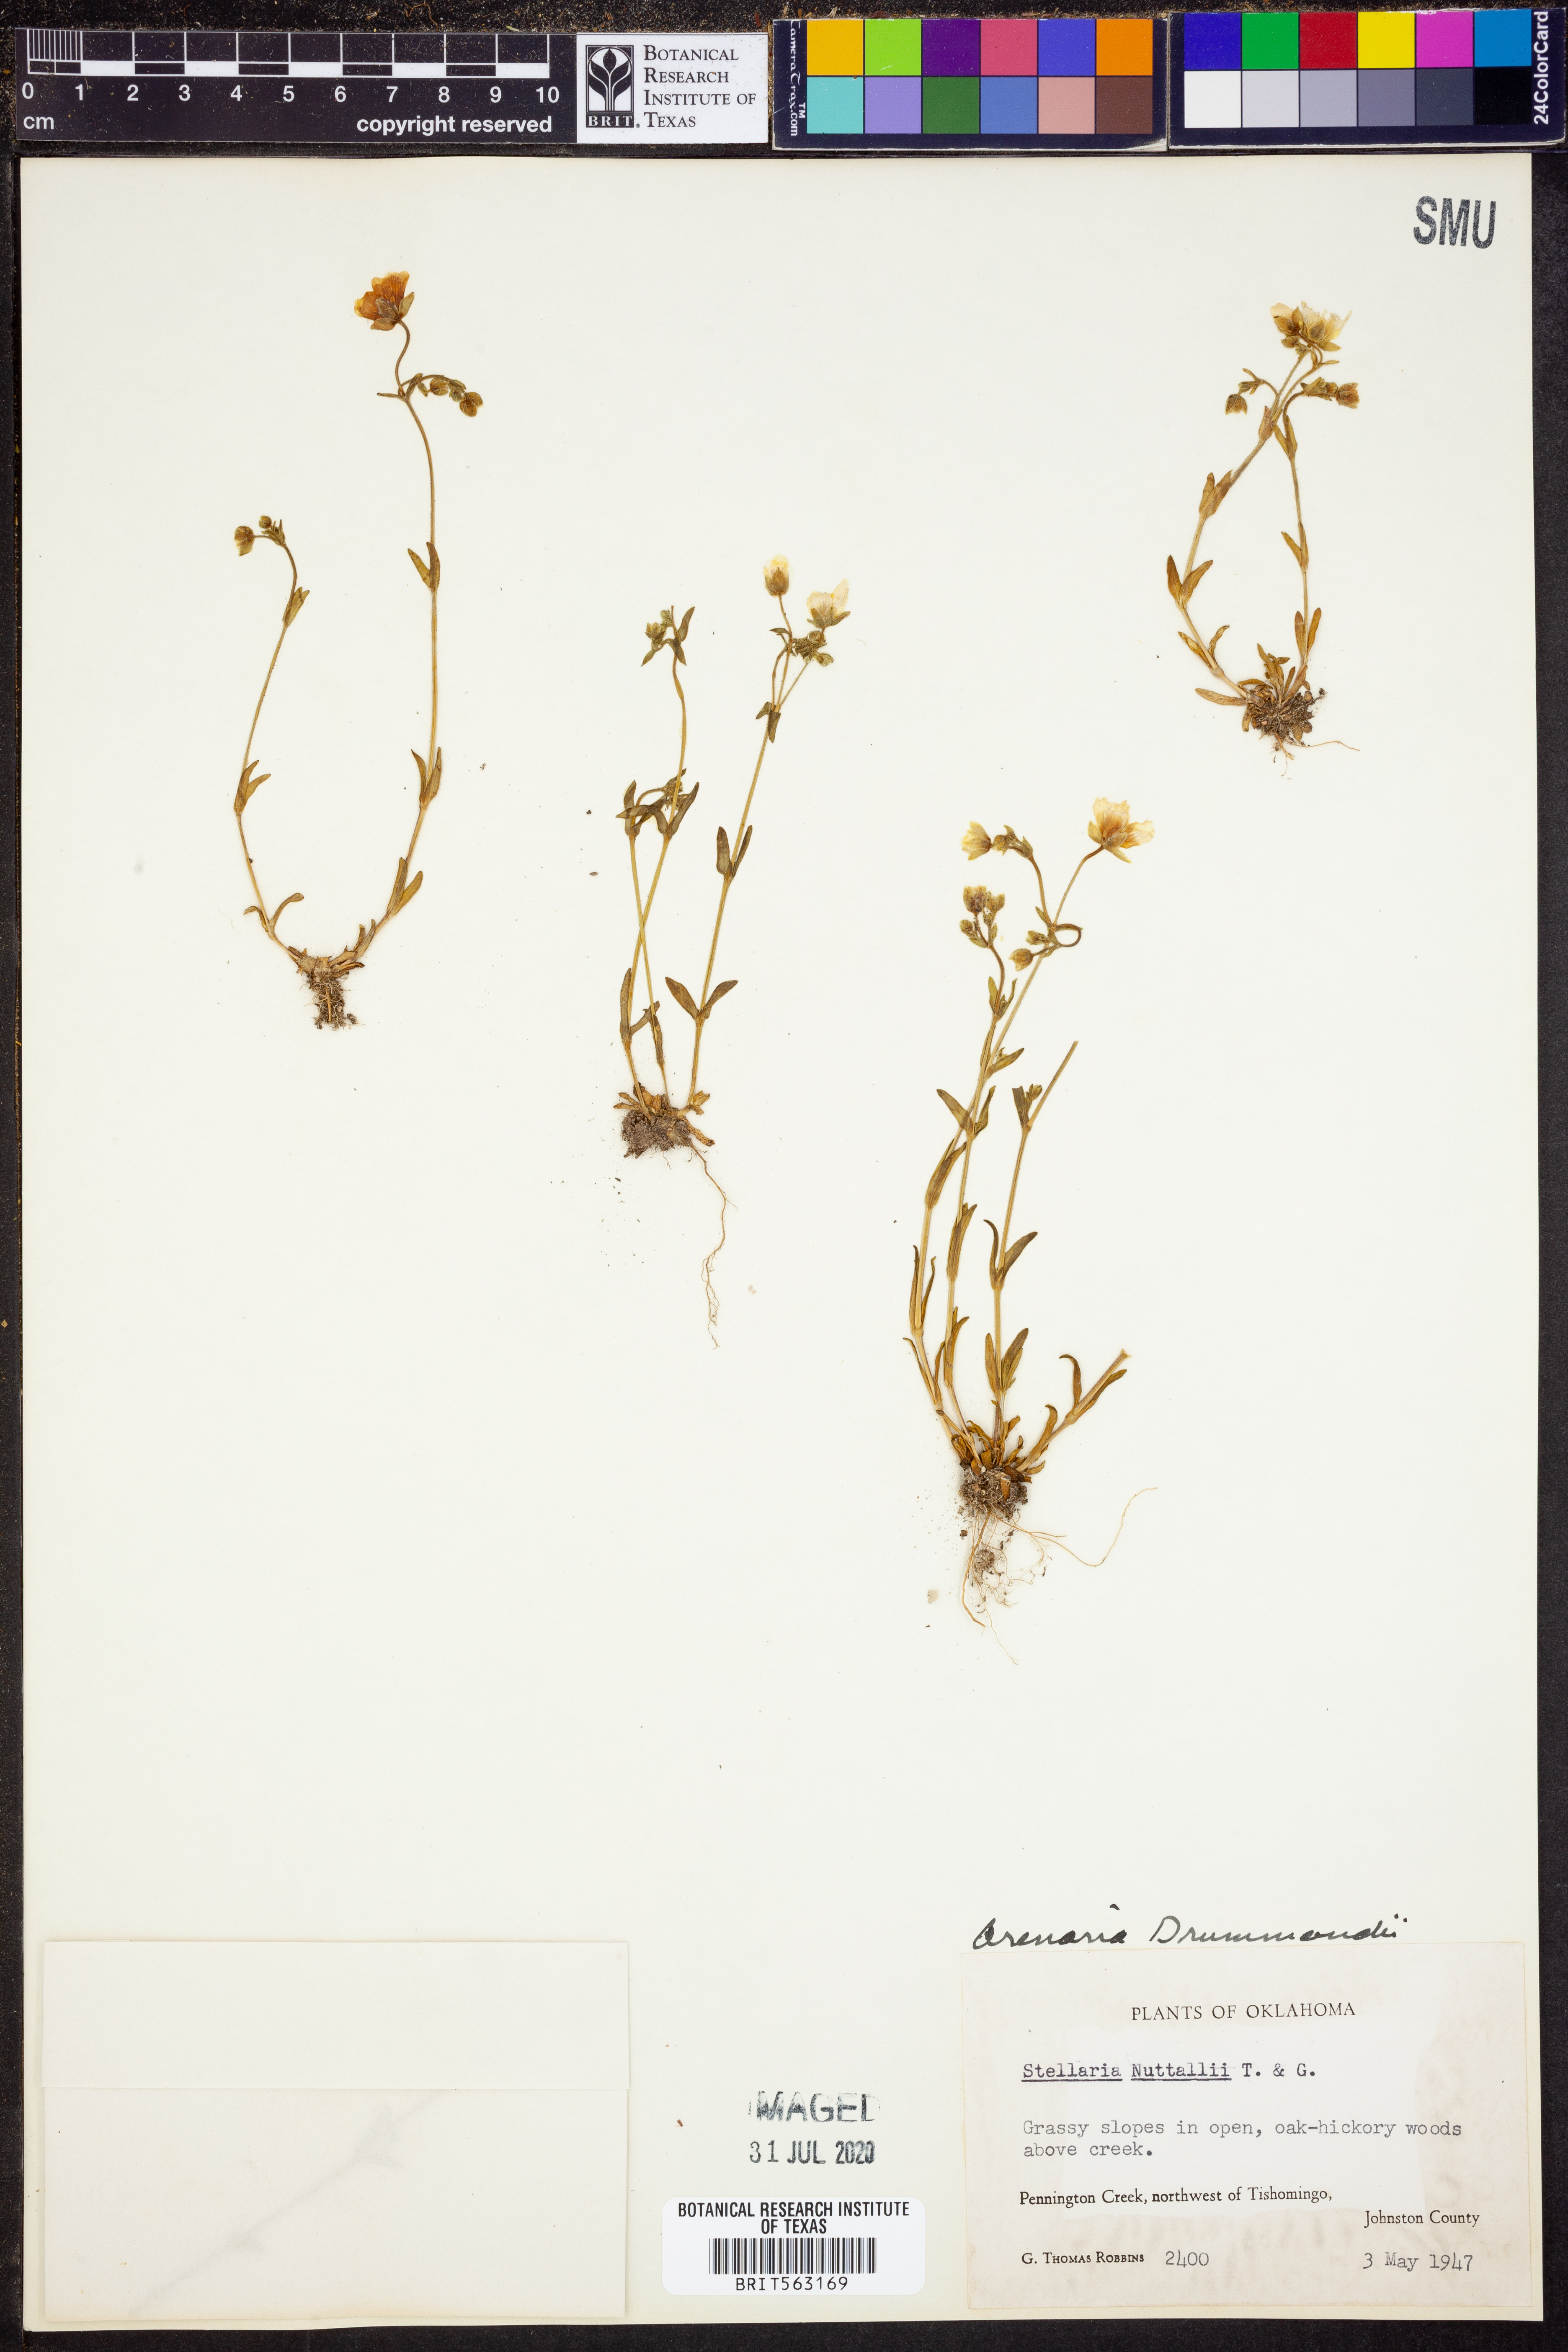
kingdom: Plantae
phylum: Tracheophyta
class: Magnoliopsida
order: Caryophyllales
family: Caryophyllaceae
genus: Geocarpon
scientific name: Geocarpon nuttallii
